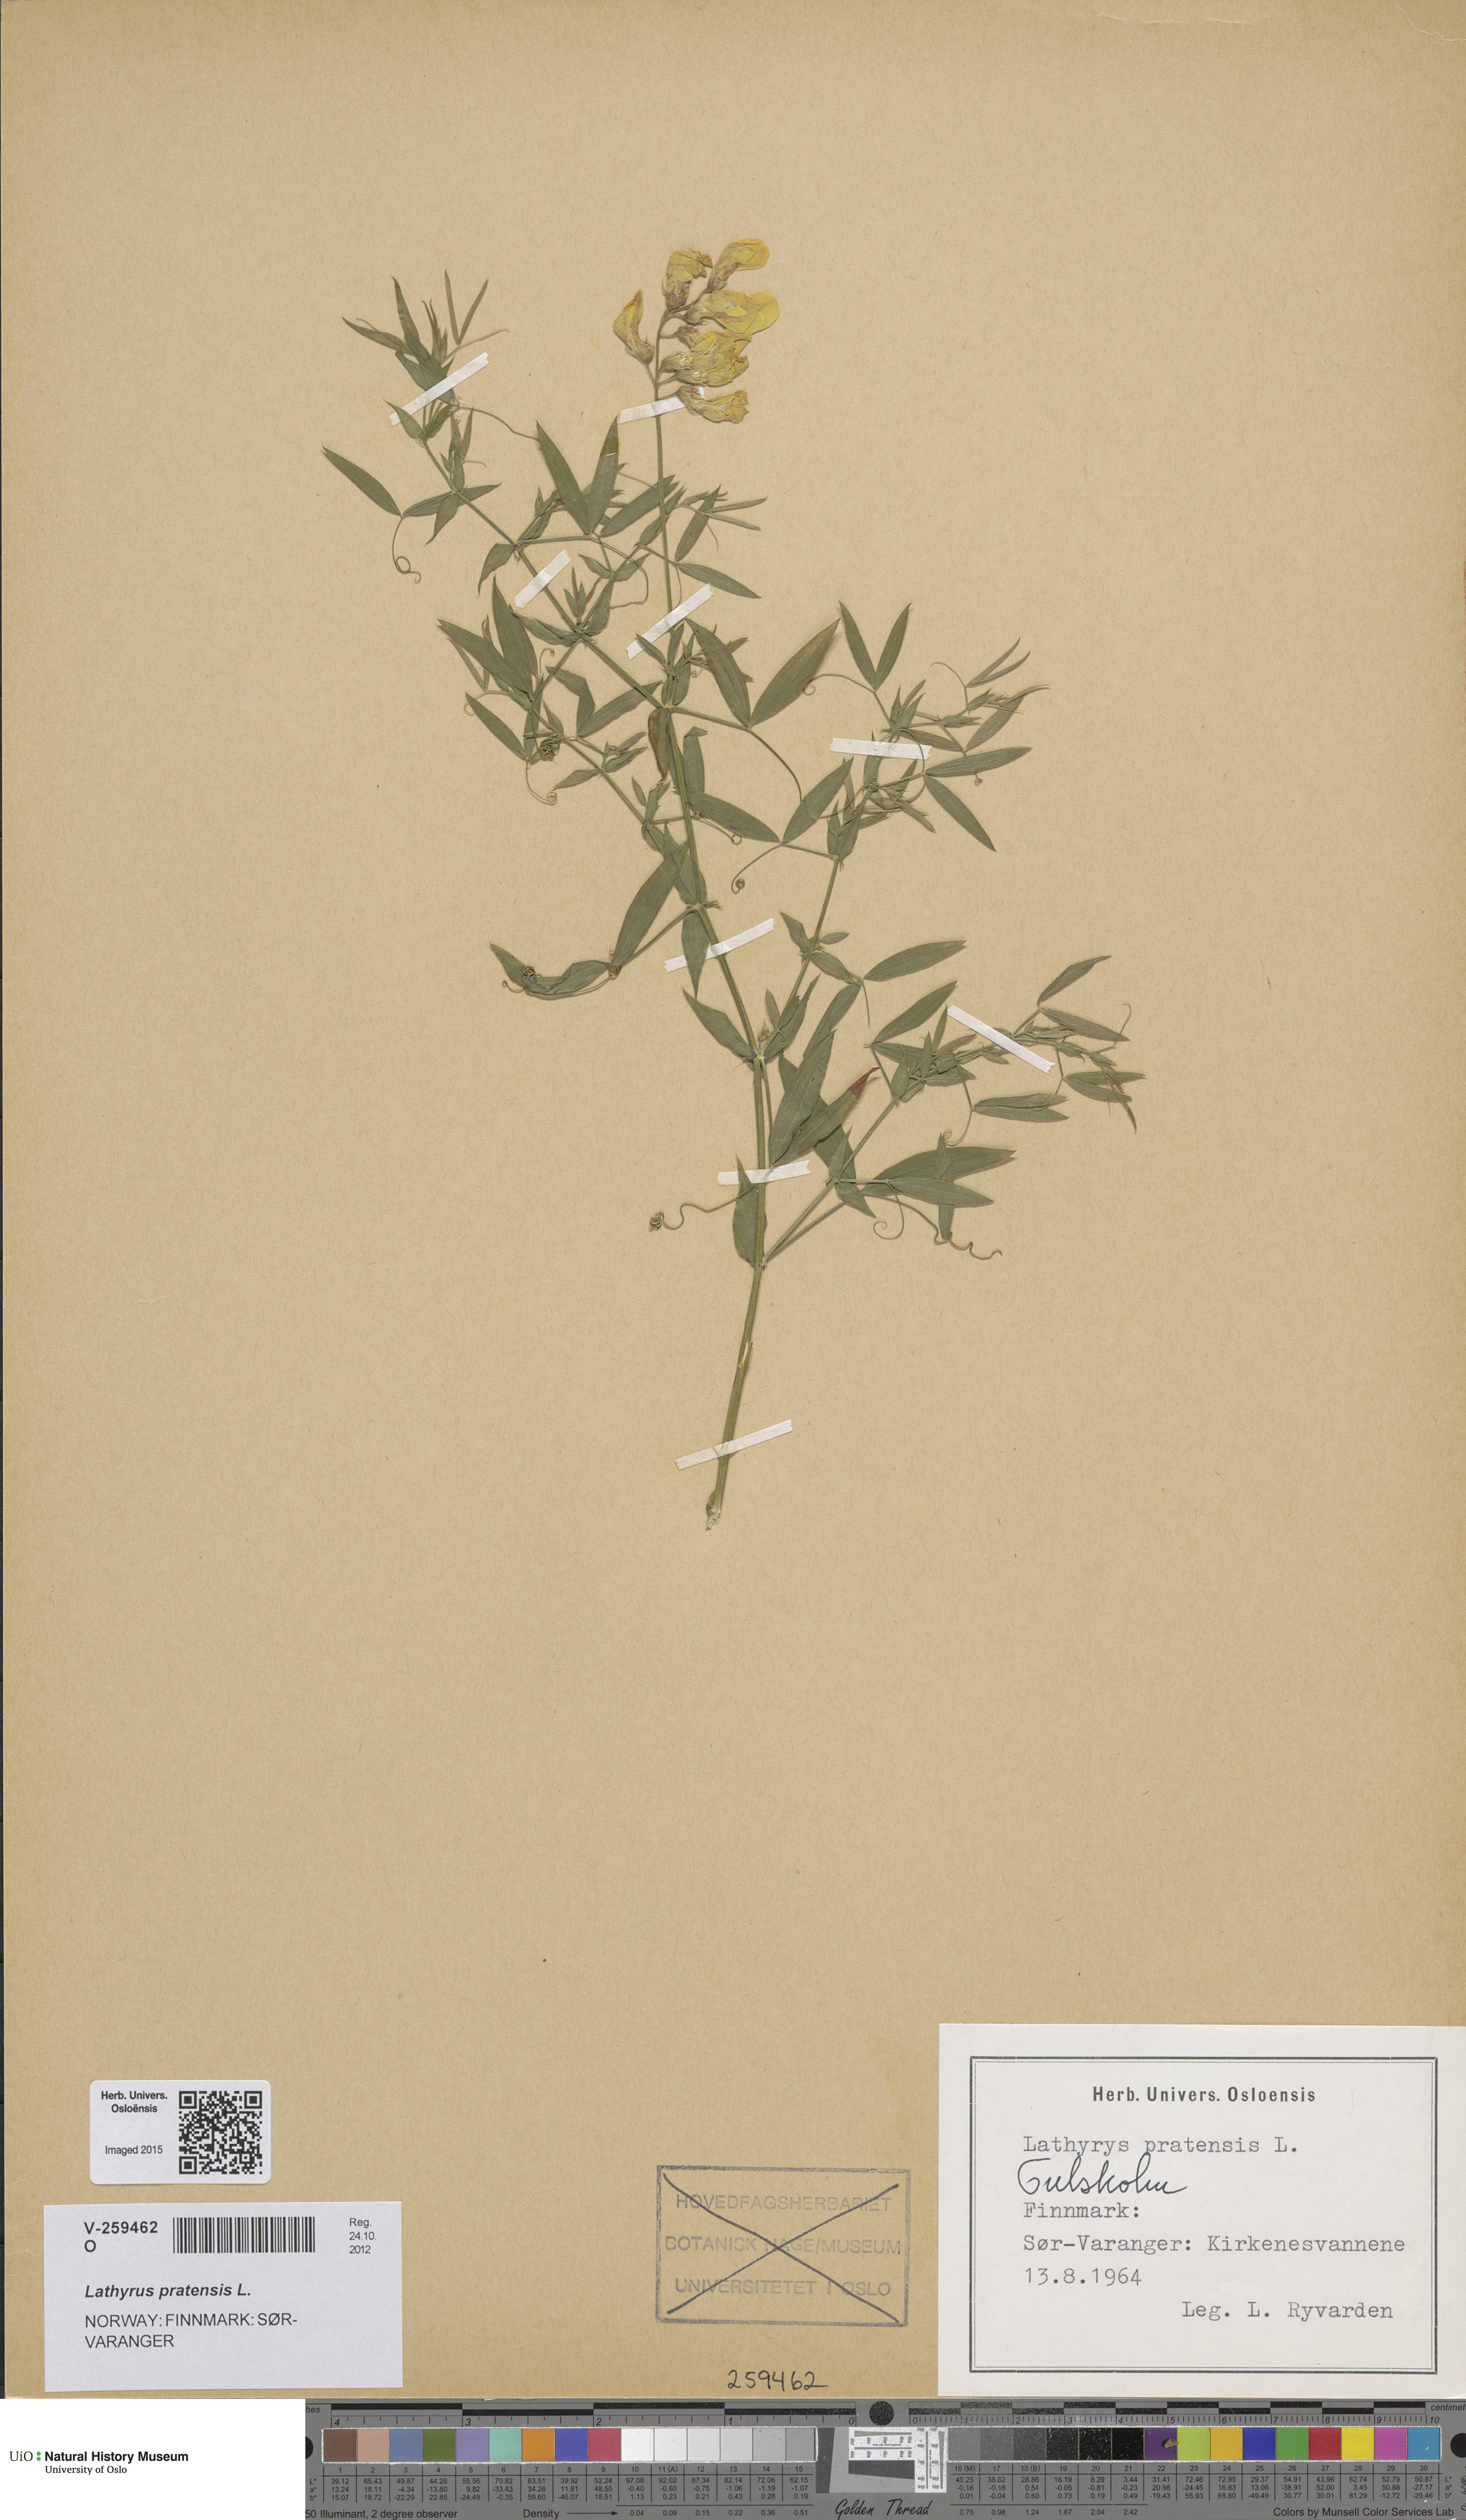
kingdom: Plantae
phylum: Tracheophyta
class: Magnoliopsida
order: Fabales
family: Fabaceae
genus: Lathyrus
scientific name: Lathyrus pratensis
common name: Meadow vetchling
